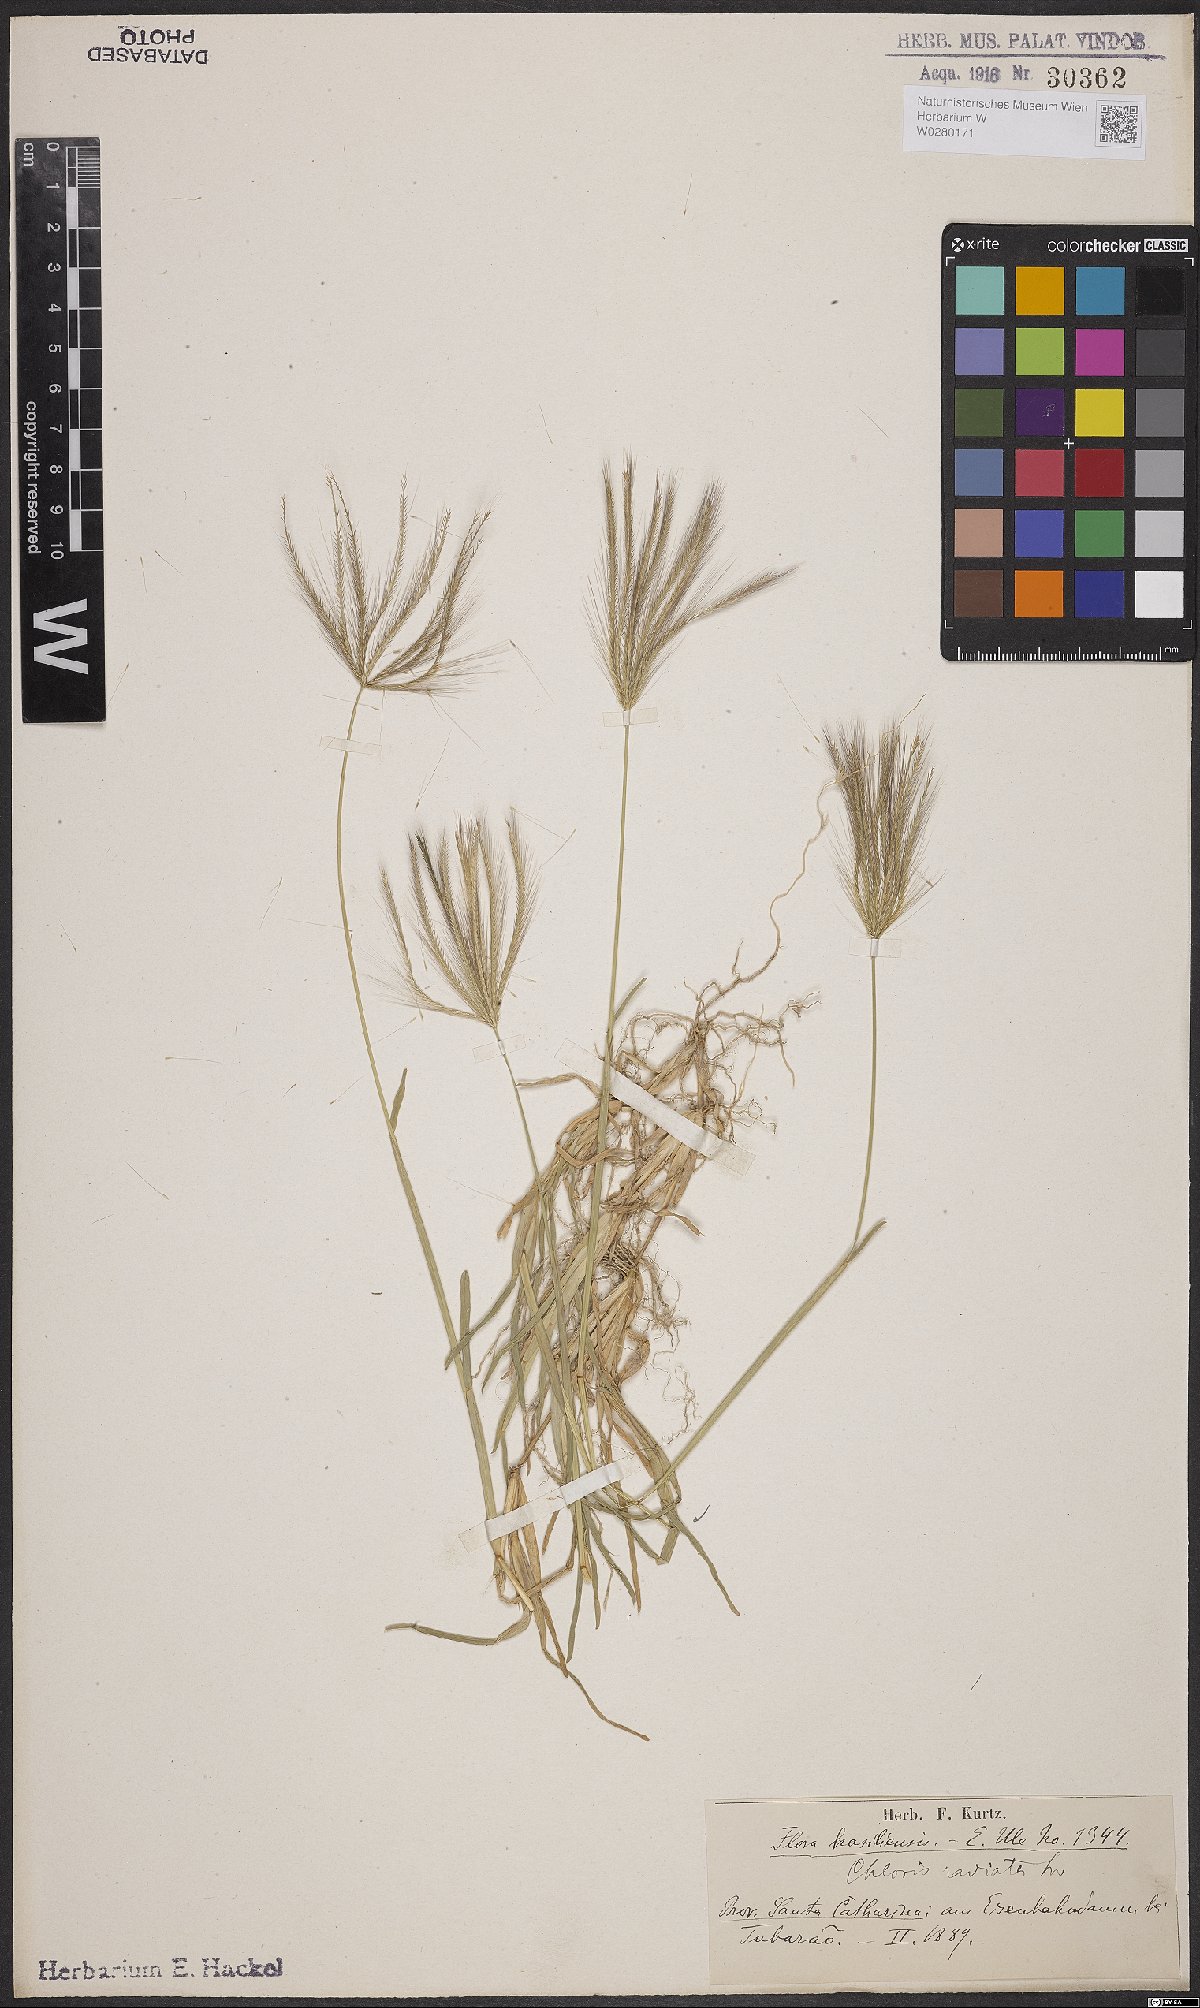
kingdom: Plantae
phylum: Tracheophyta
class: Liliopsida
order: Poales
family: Poaceae
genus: Chloris
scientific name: Chloris radiata
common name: Radiate fingergrass
